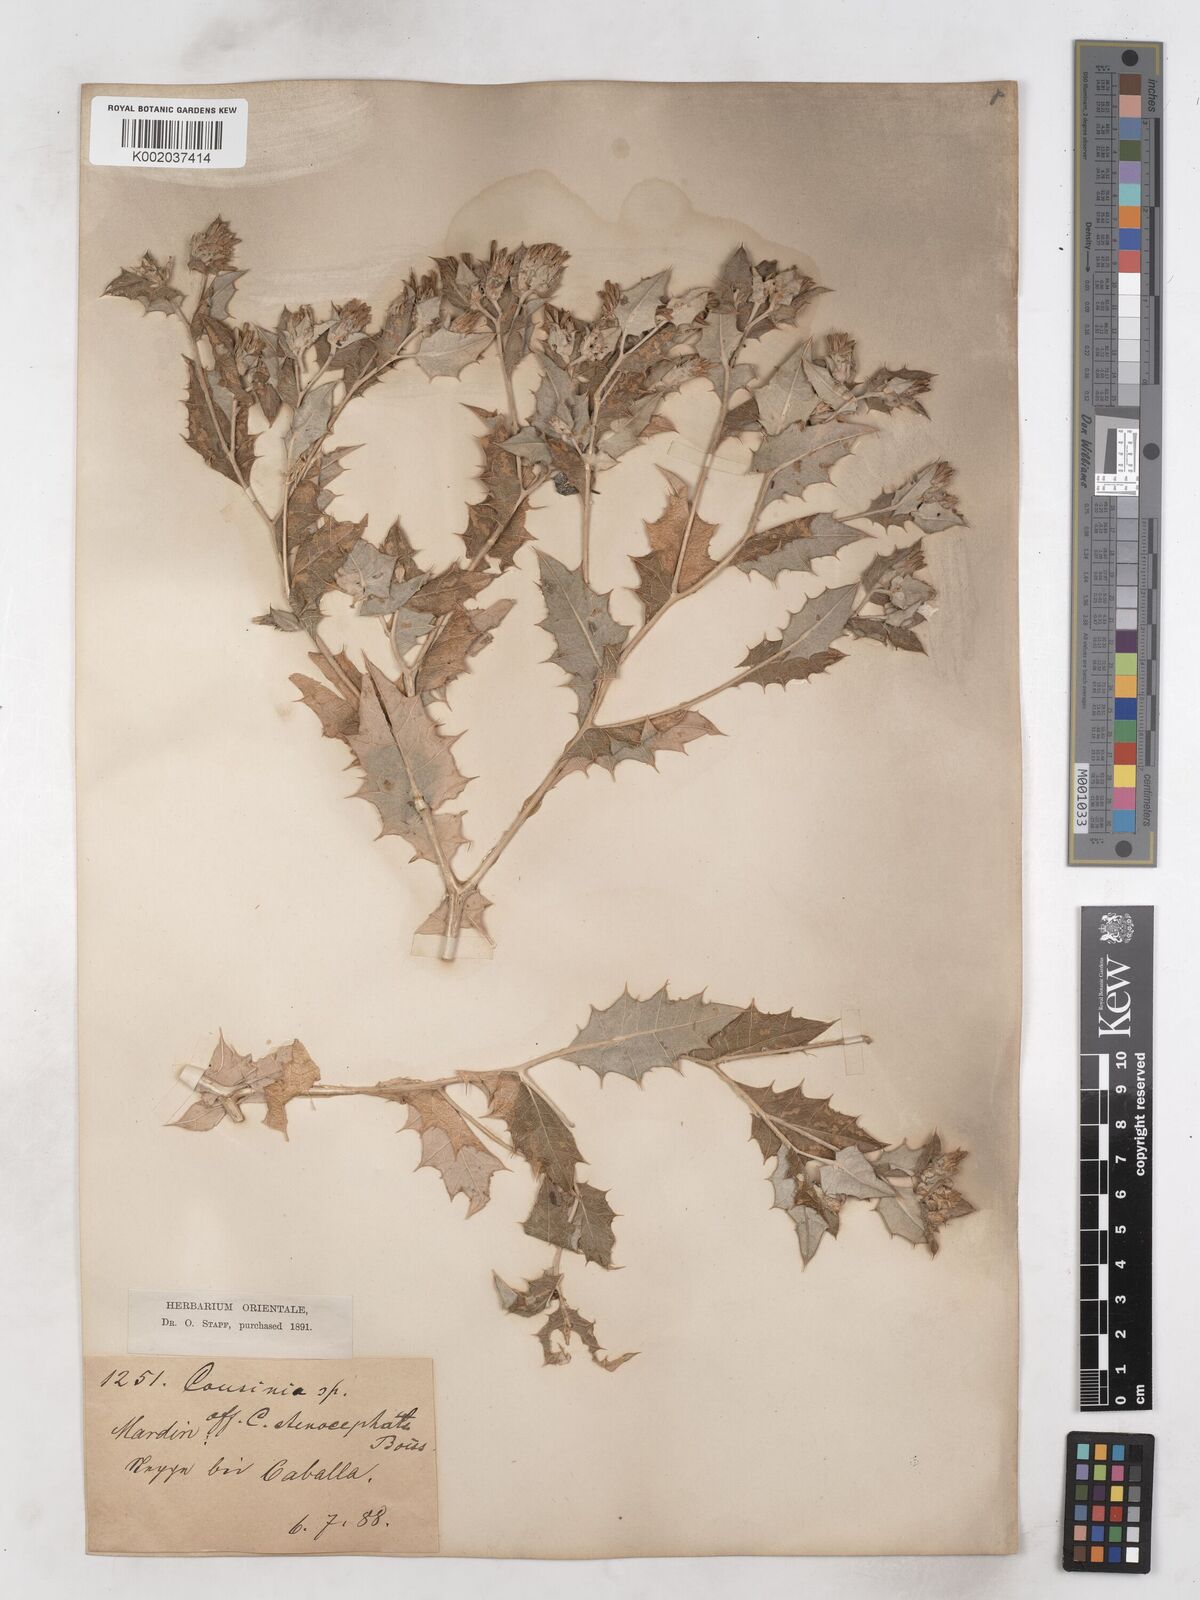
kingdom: Plantae
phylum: Tracheophyta
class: Magnoliopsida
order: Asterales
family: Asteraceae
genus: Cousinia
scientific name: Cousinia stenocephala
